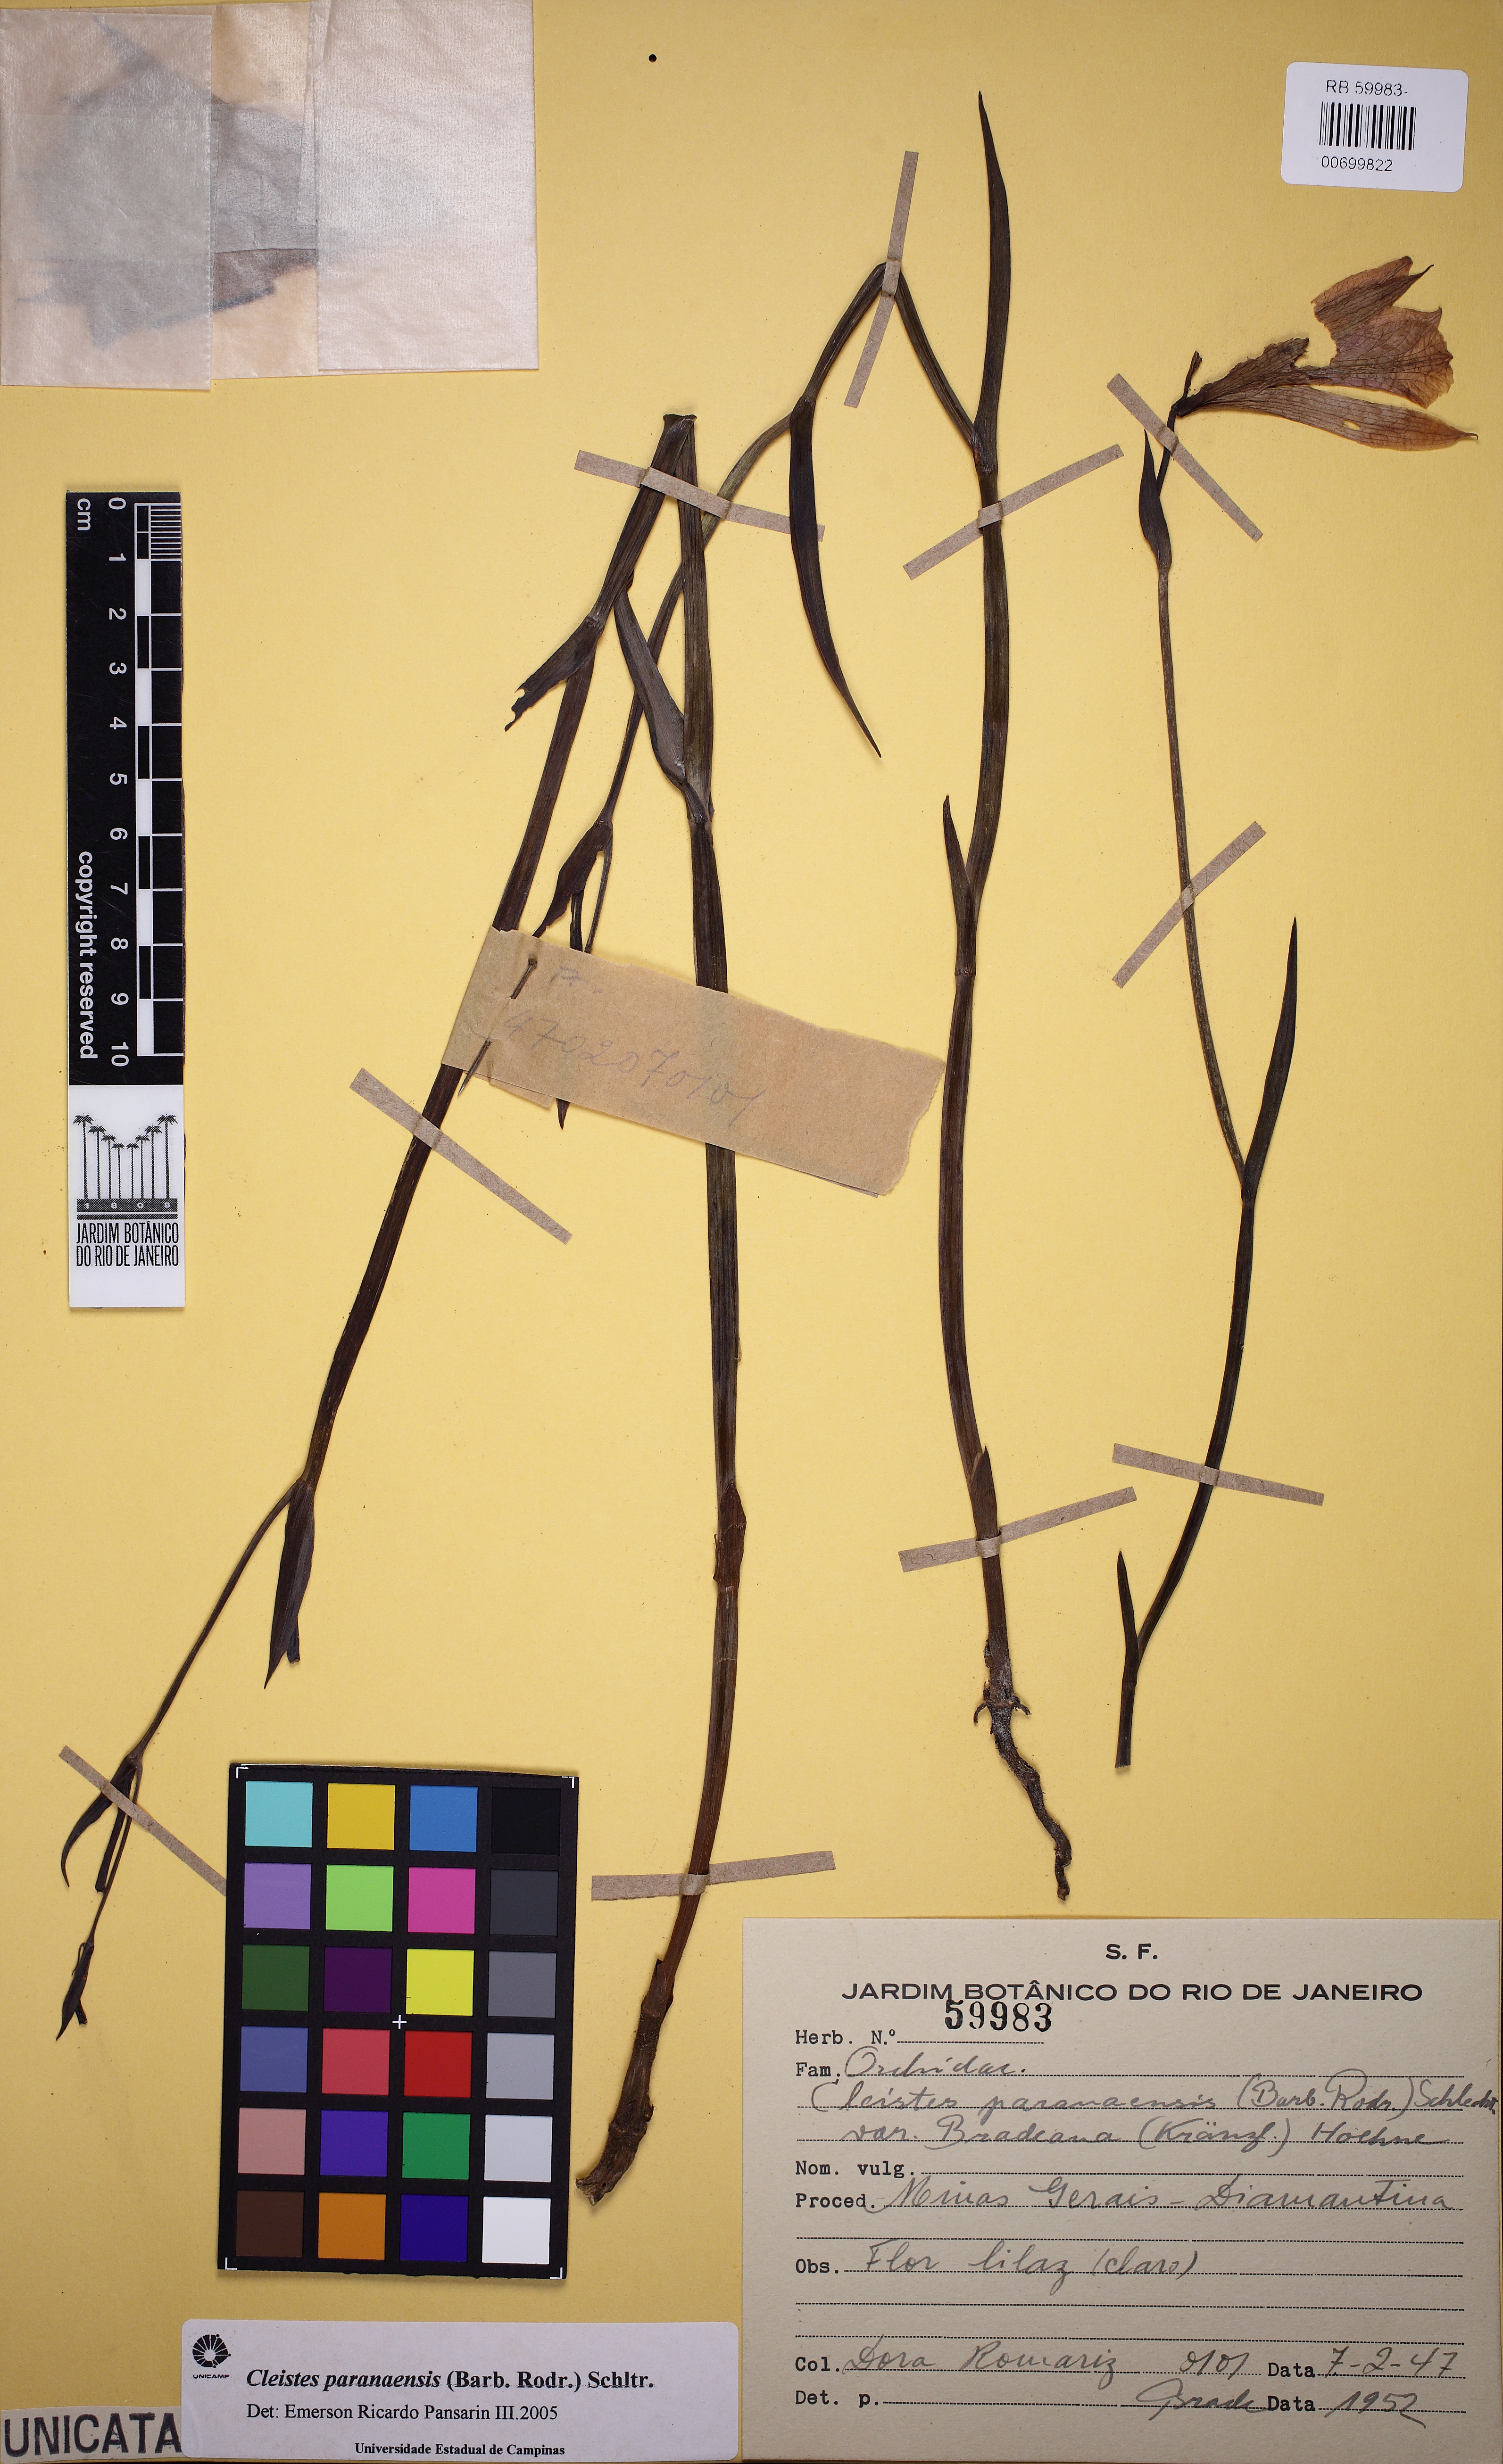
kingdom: Plantae
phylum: Tracheophyta
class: Liliopsida
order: Asparagales
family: Orchidaceae
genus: Cleistes
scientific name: Cleistes paranaensis
